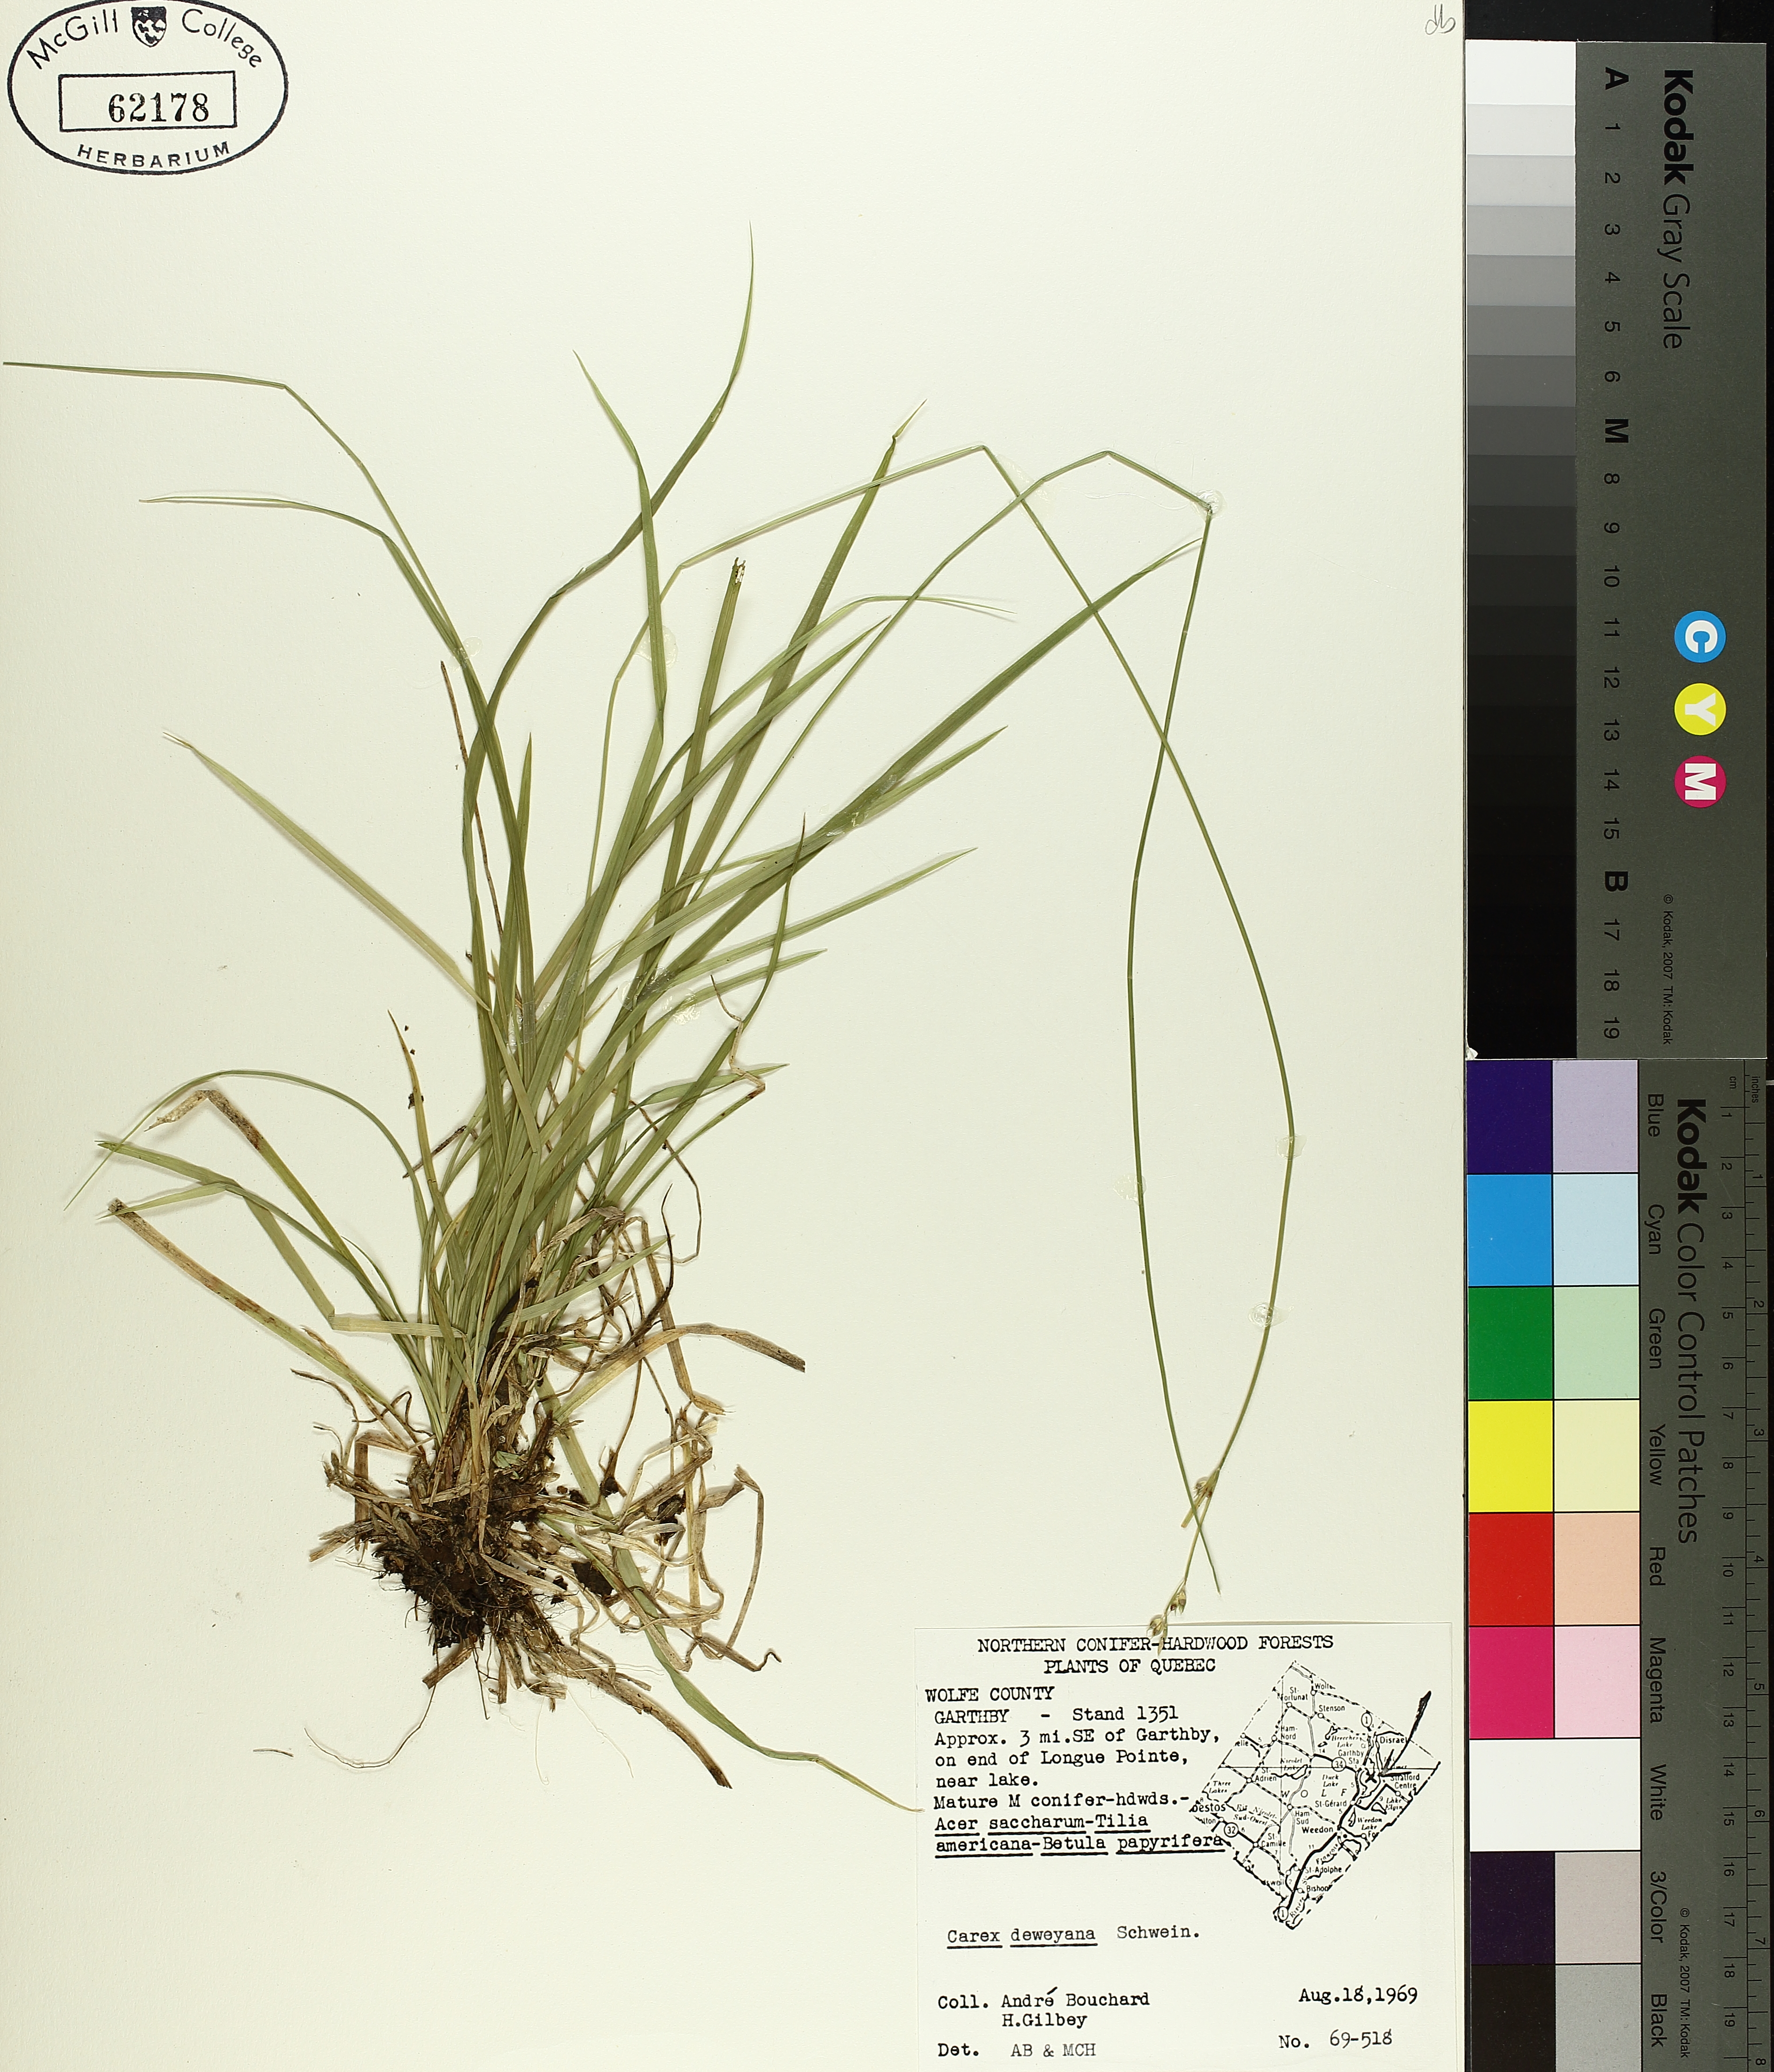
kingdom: Plantae
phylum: Tracheophyta
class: Liliopsida
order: Poales
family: Cyperaceae
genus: Carex
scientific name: Carex deweyana
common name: Dewey's sedge
